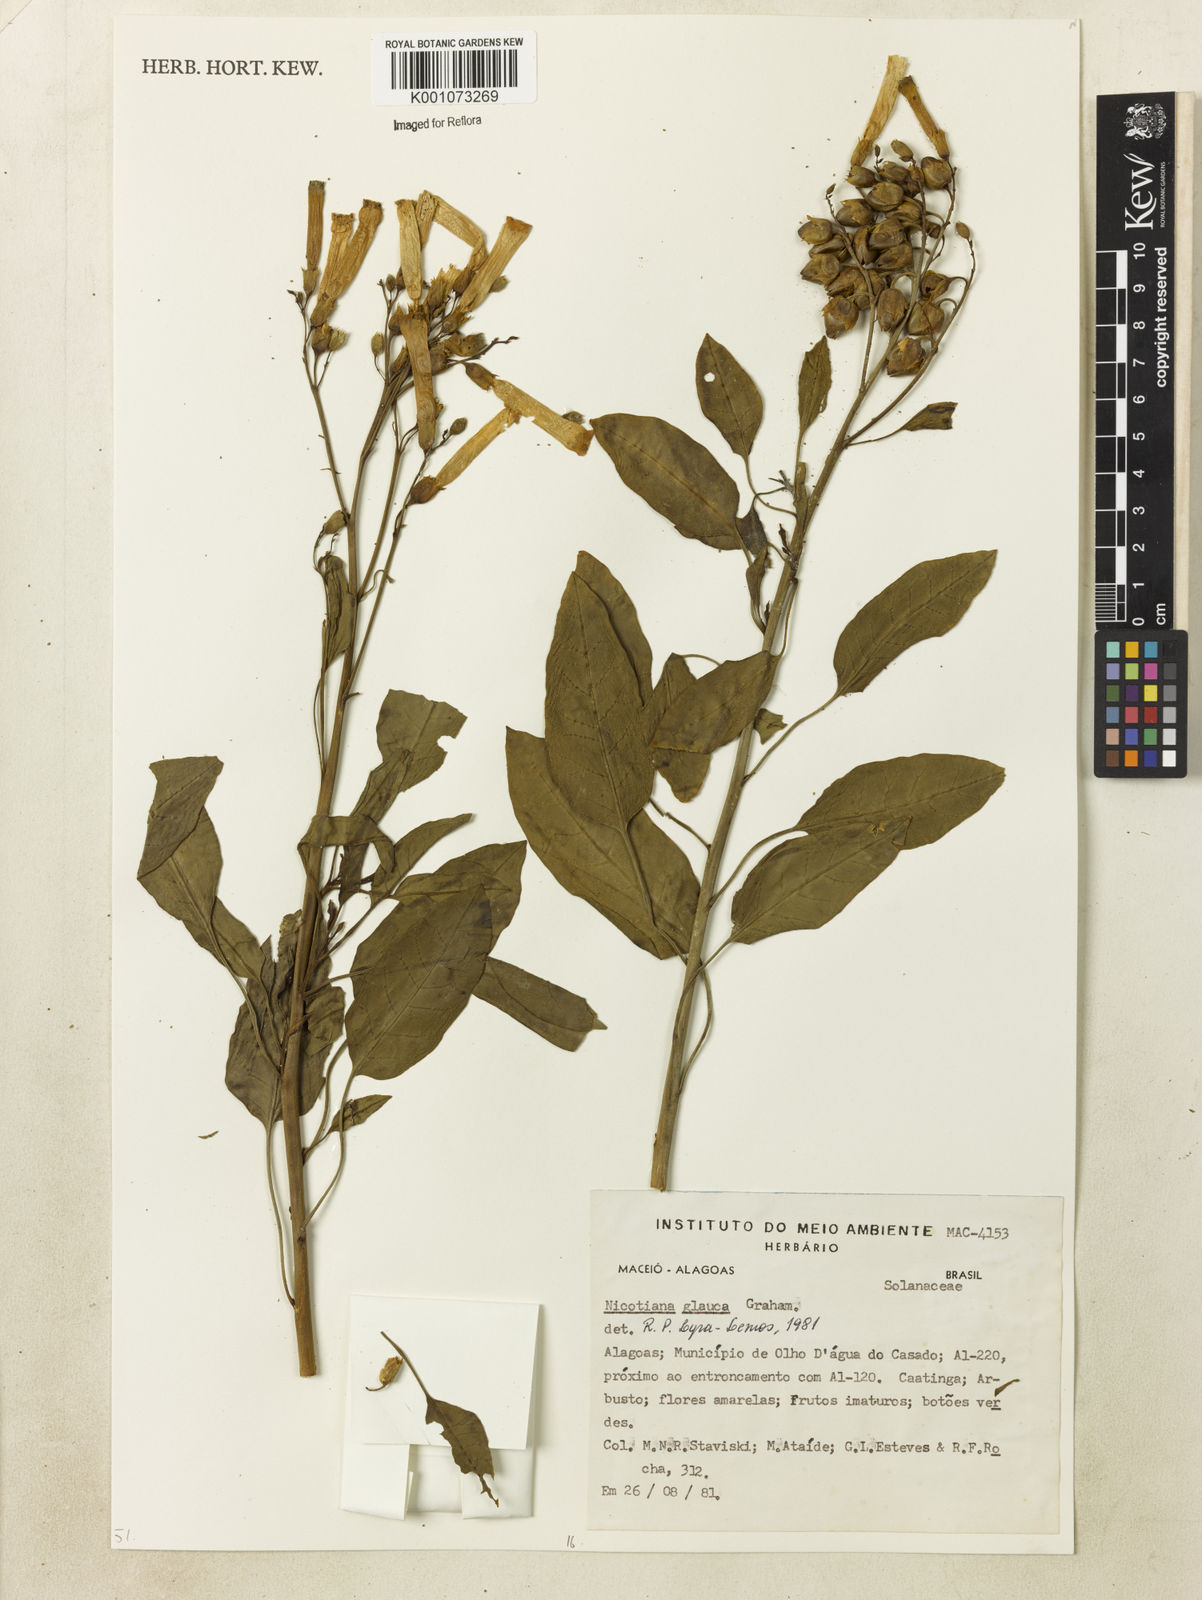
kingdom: Plantae
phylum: Tracheophyta
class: Magnoliopsida
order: Solanales
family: Solanaceae
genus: Nicotiana
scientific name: Nicotiana glauca
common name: Tree tobacco
